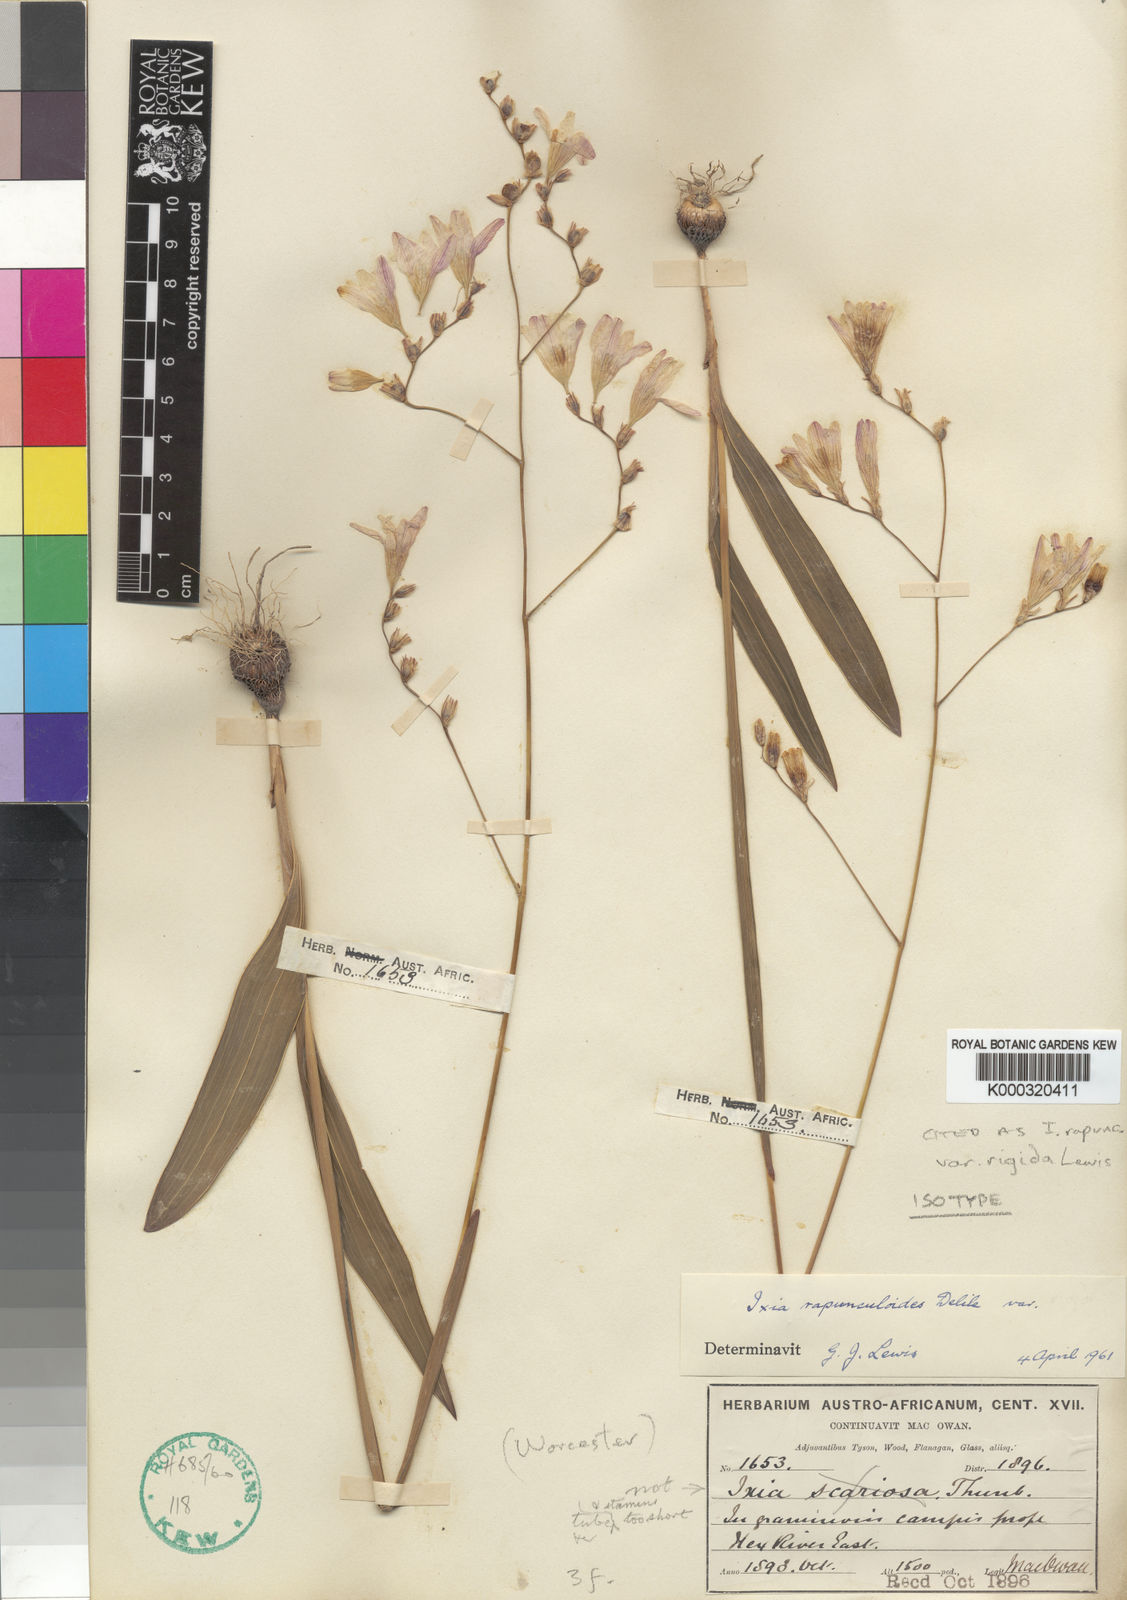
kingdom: Plantae
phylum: Tracheophyta
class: Liliopsida
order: Asparagales
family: Iridaceae
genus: Ixia
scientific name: Ixia
